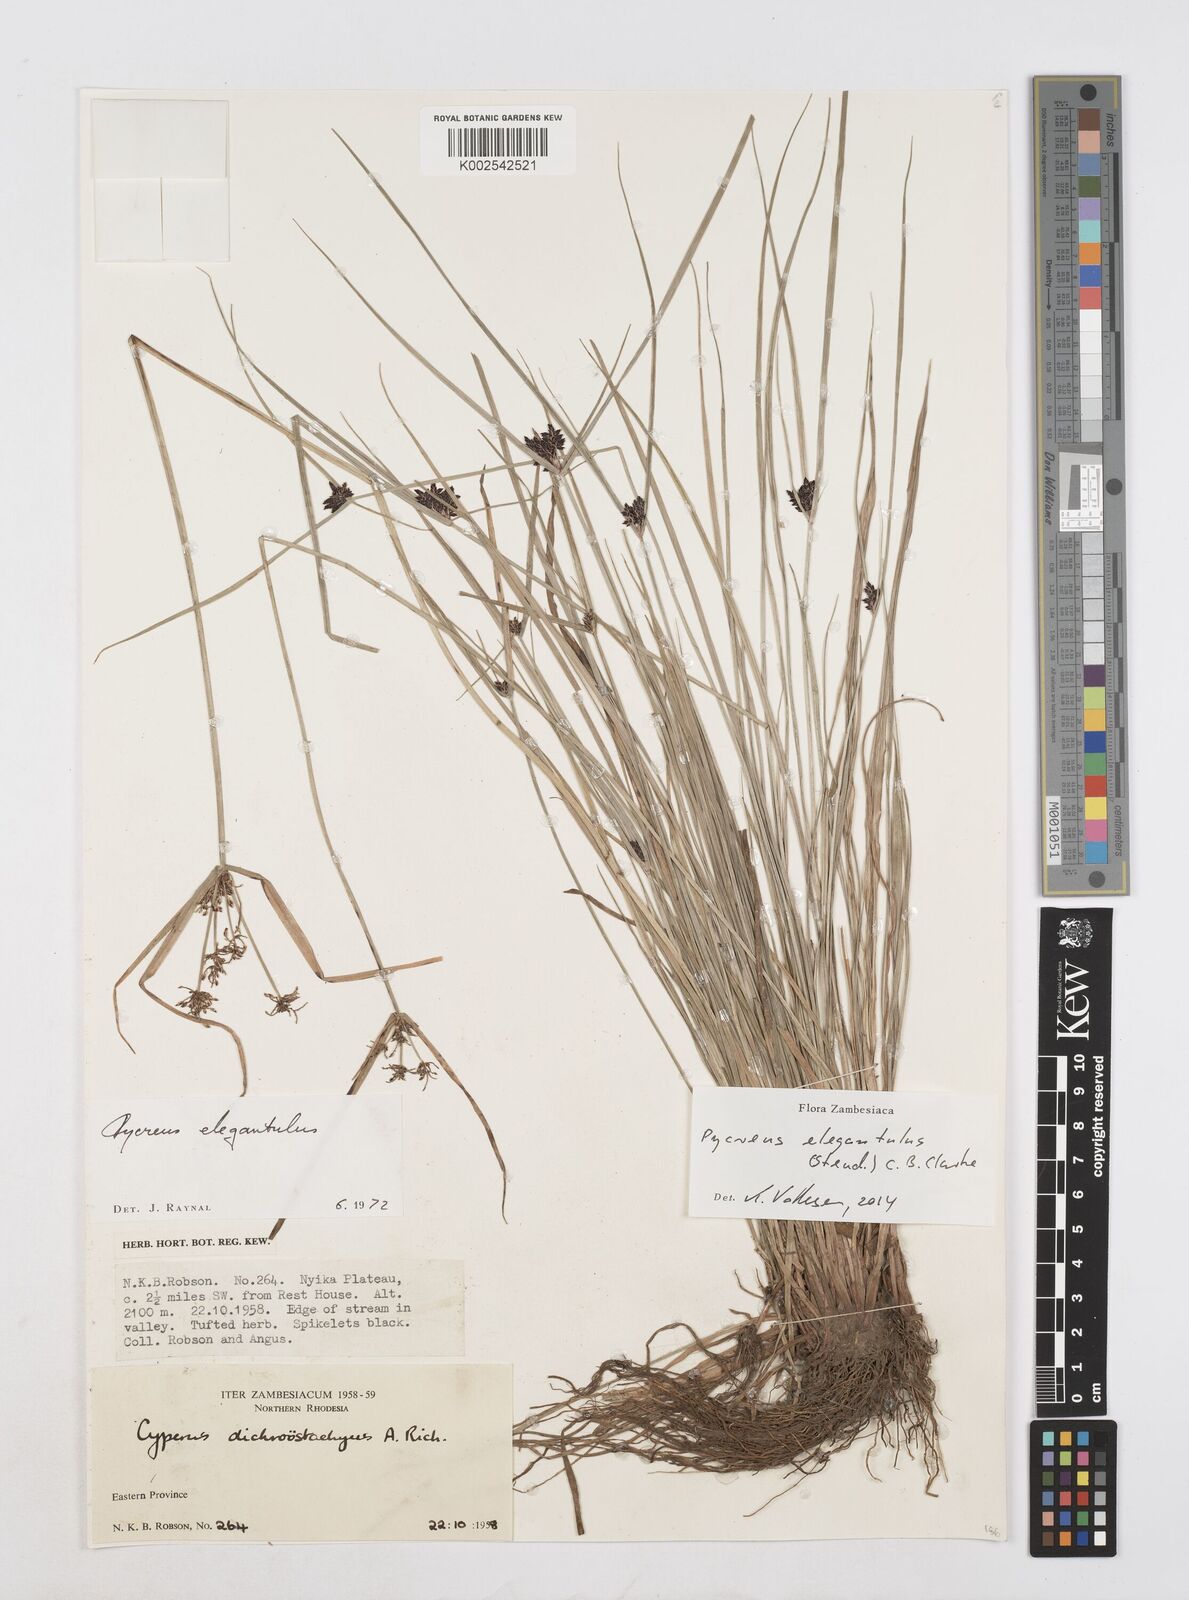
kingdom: Plantae
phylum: Tracheophyta
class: Liliopsida
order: Poales
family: Cyperaceae
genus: Cyperus
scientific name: Cyperus elegantulus
